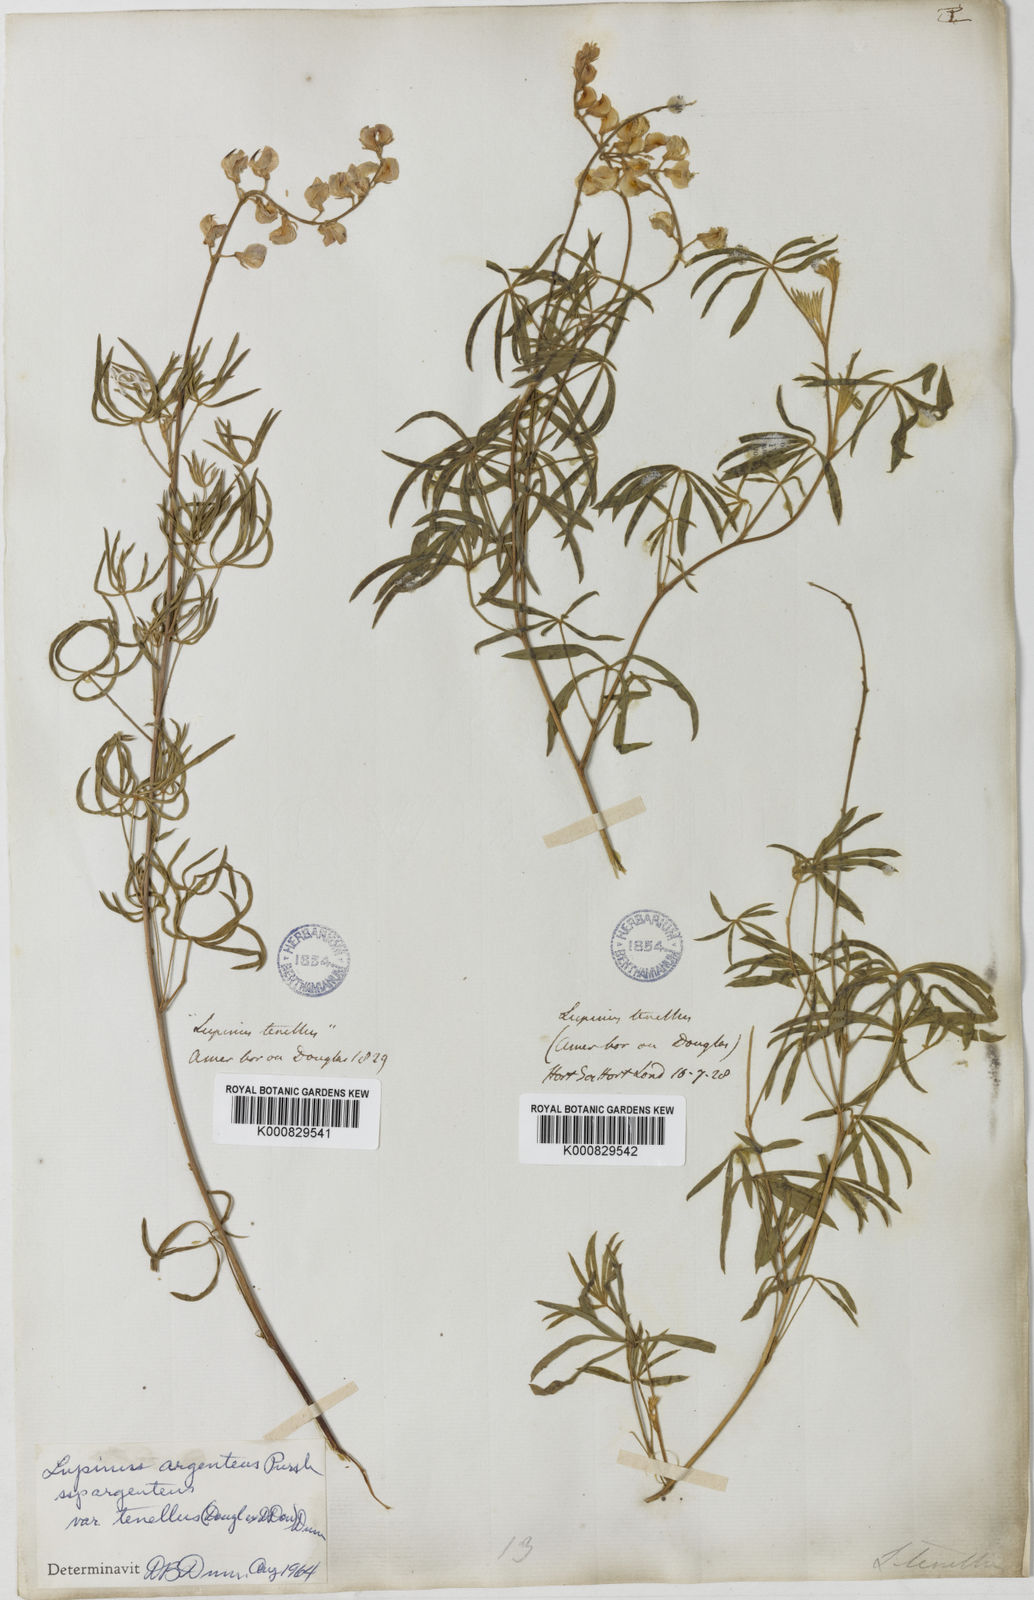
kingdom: Plantae
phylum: Tracheophyta
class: Magnoliopsida
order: Fabales
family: Fabaceae
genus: Lupinus
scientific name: Lupinus argenteus
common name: Silvery lupine
